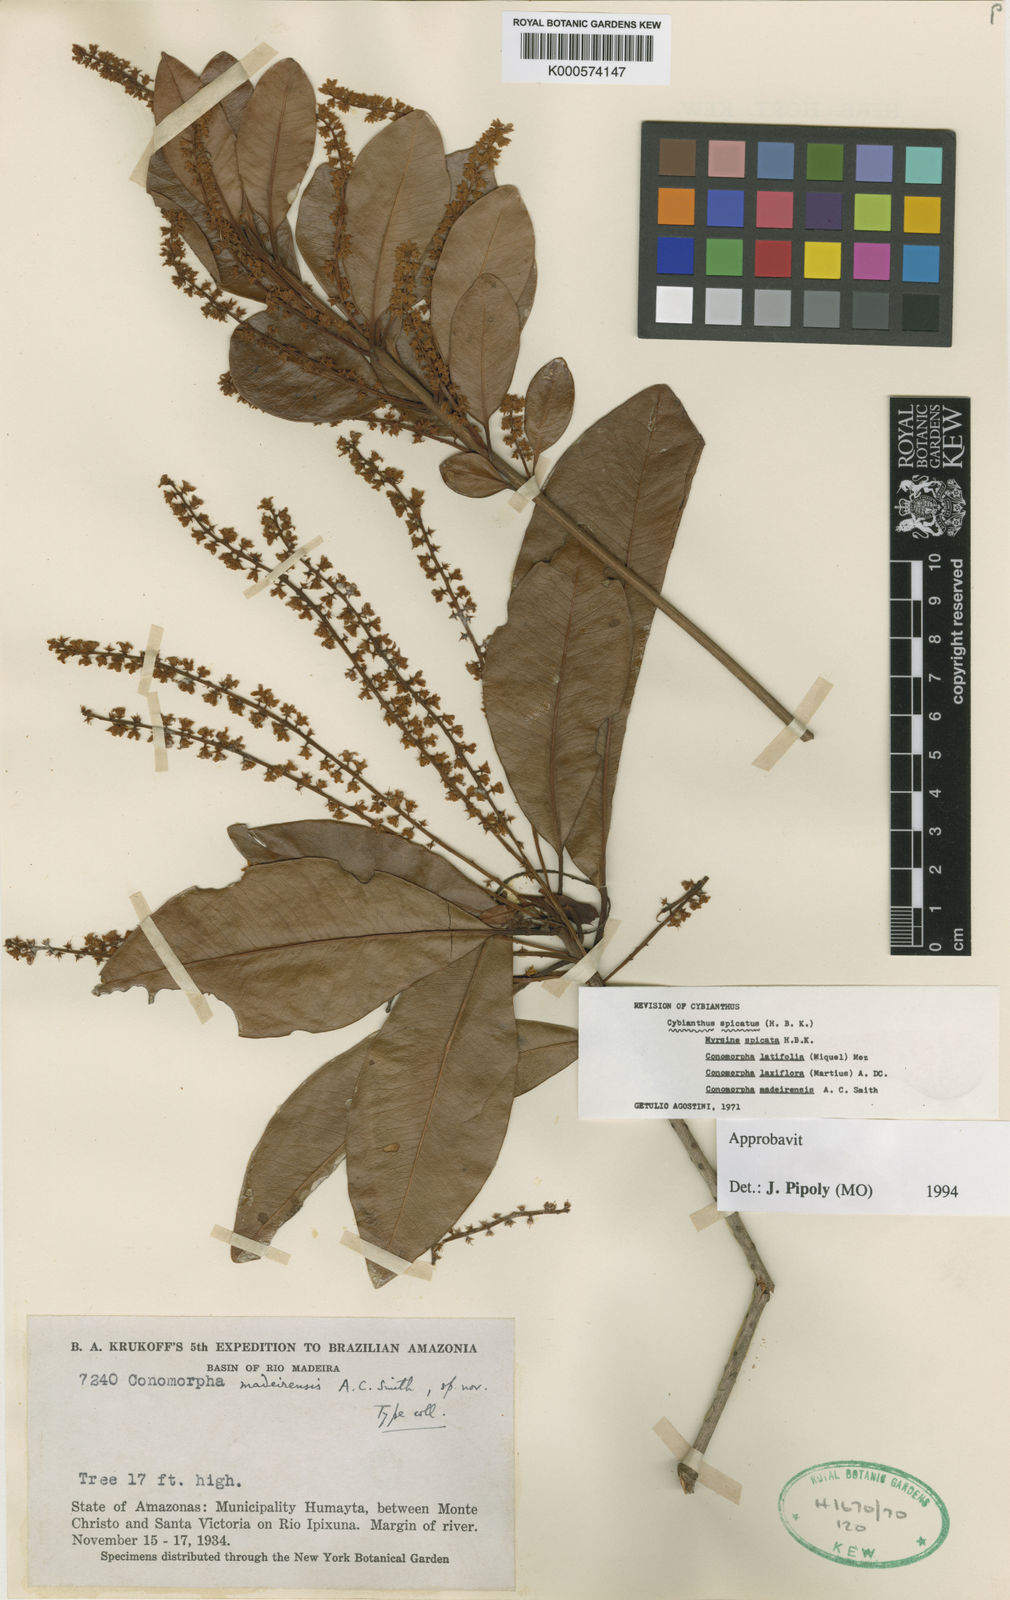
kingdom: Plantae
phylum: Tracheophyta
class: Magnoliopsida
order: Ericales
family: Primulaceae
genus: Cybianthus
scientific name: Cybianthus spicatus
